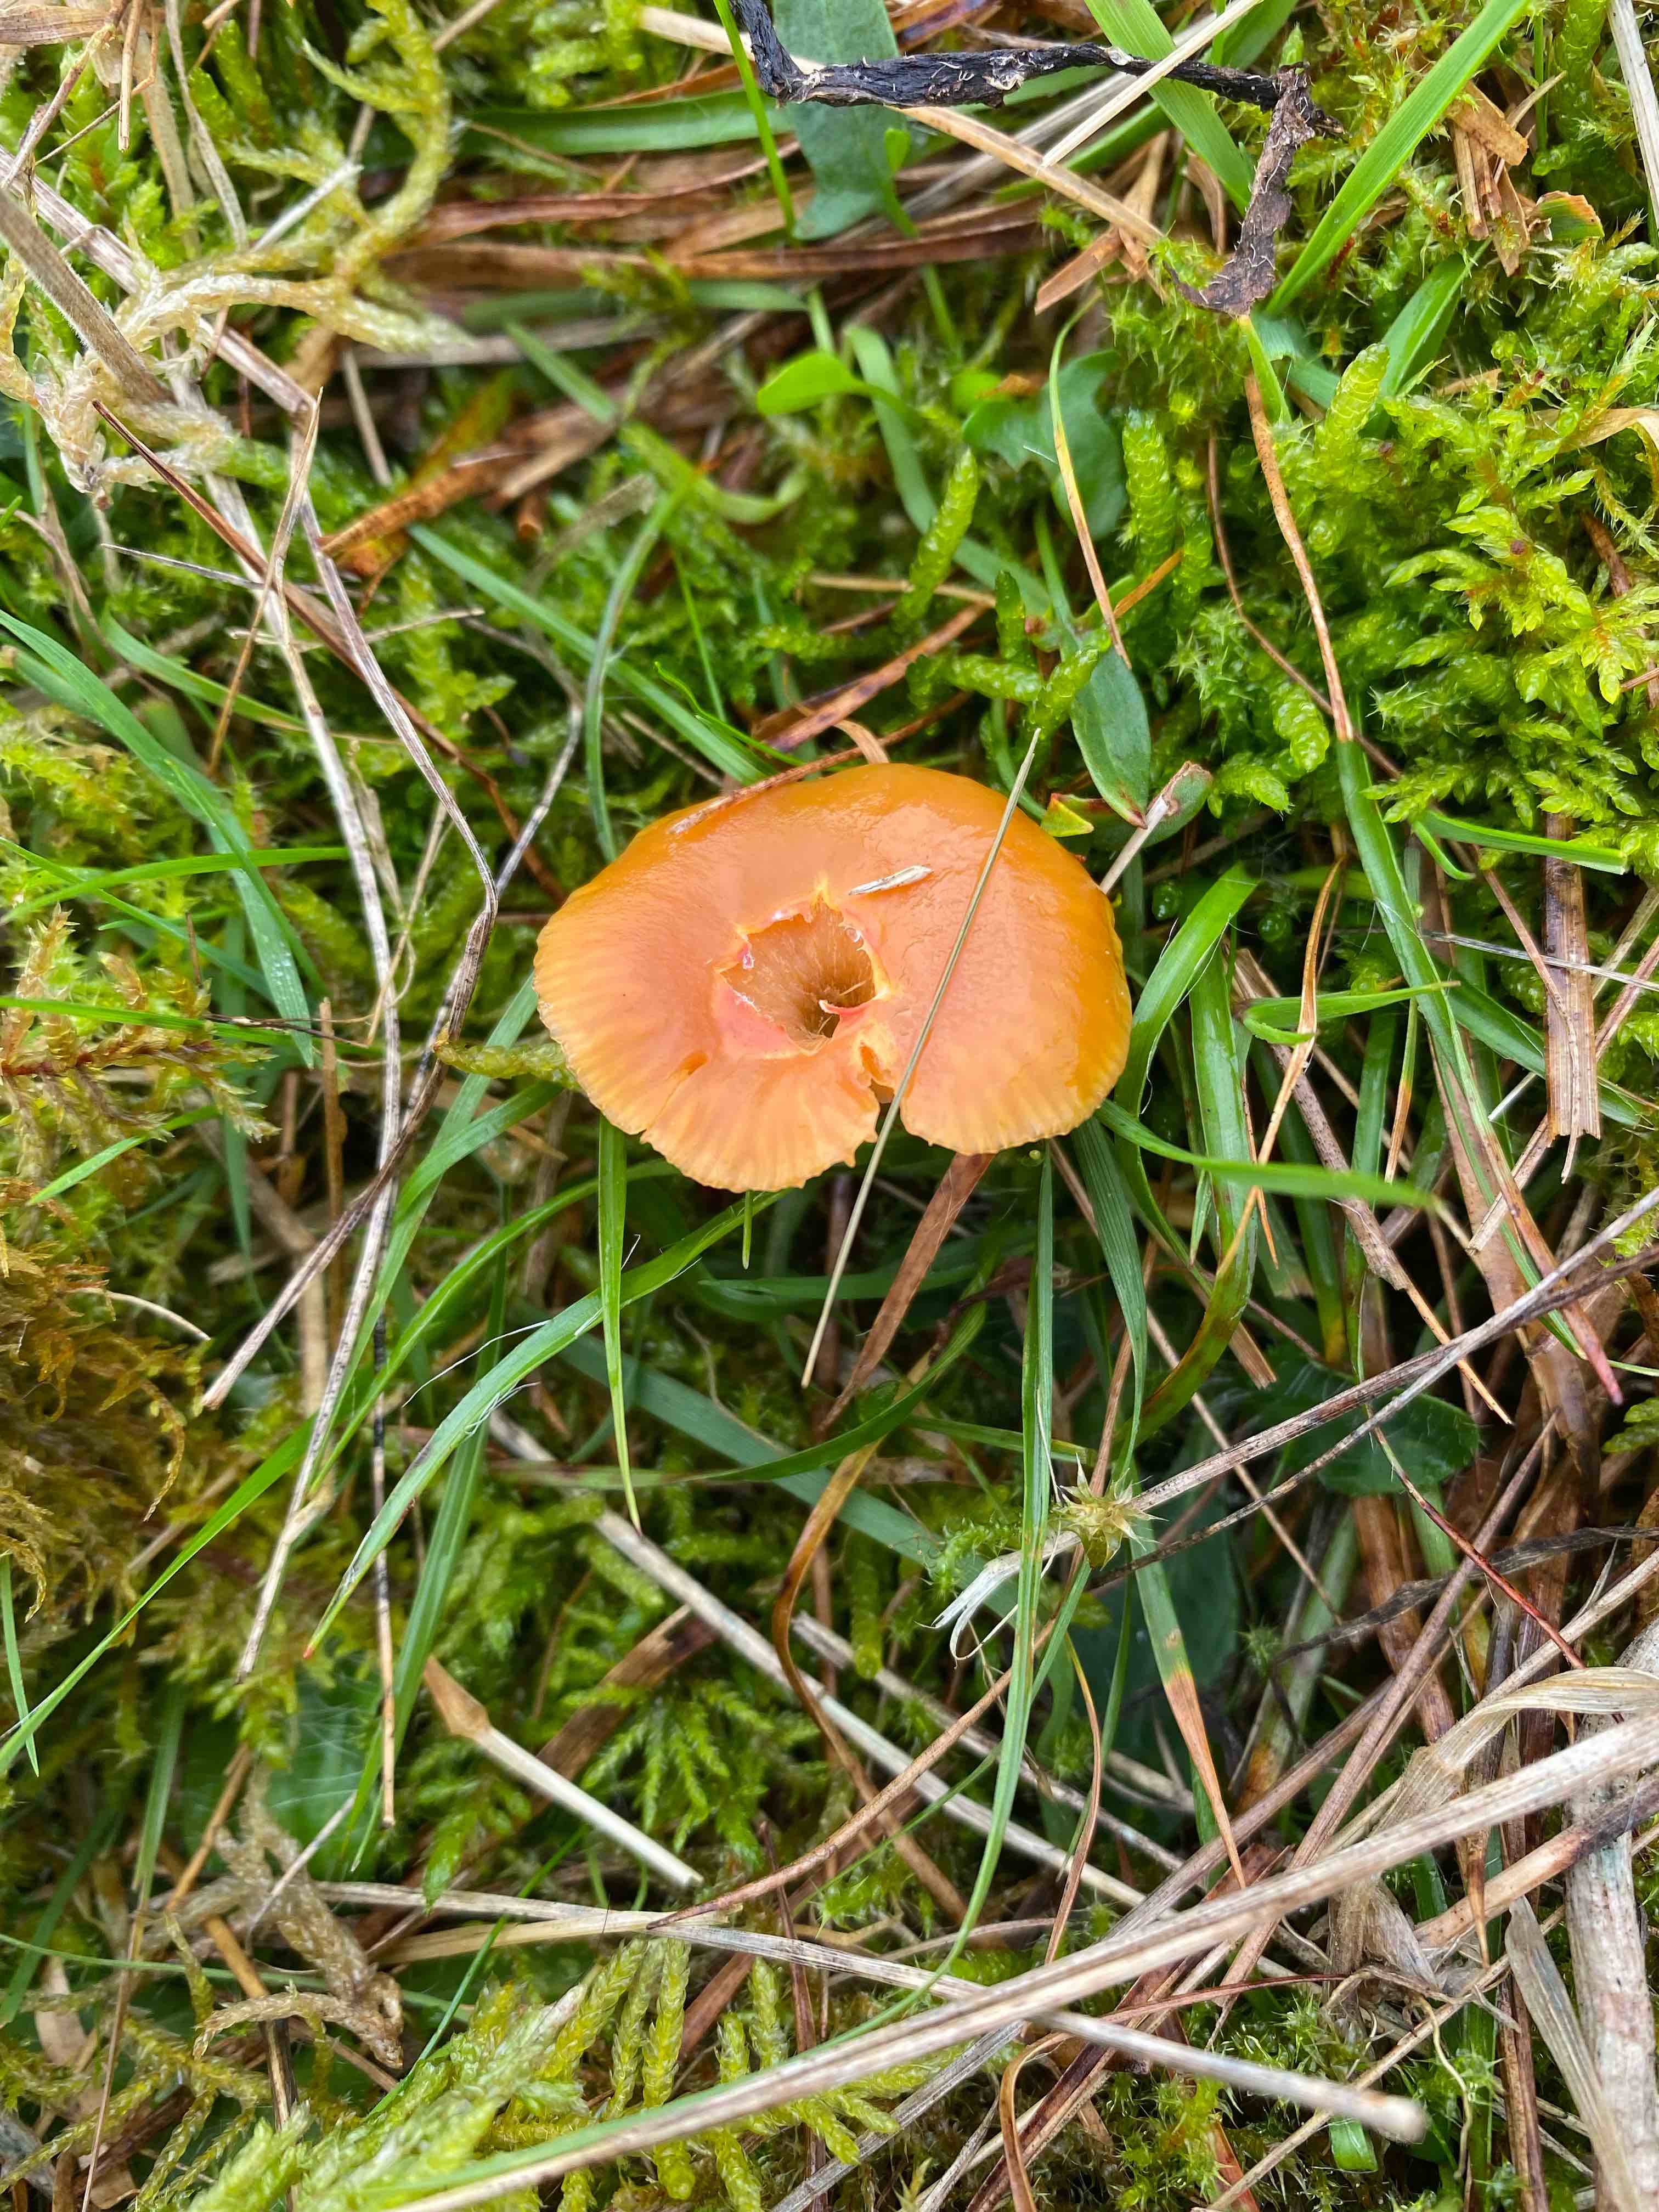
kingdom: Fungi
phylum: Basidiomycota
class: Agaricomycetes
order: Agaricales
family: Hygrophoraceae
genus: Gliophorus
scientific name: Gliophorus psittacinus
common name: papegøje-vokshat
